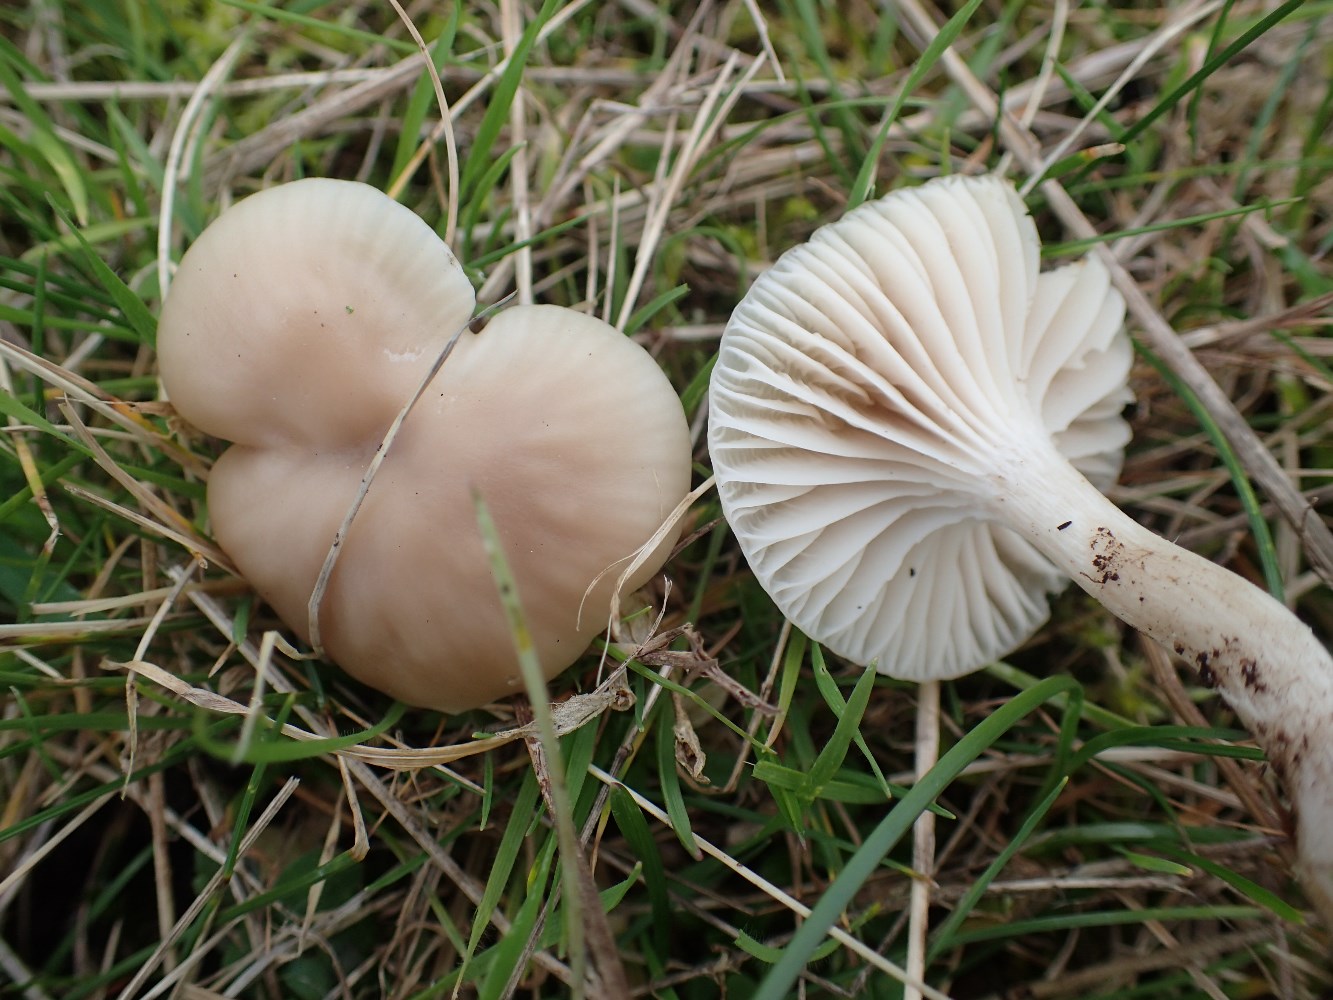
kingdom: Fungi
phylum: Basidiomycota
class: Agaricomycetes
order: Agaricales
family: Hygrophoraceae
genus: Cuphophyllus
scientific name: Cuphophyllus virgineus
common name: isabella-vokshat
